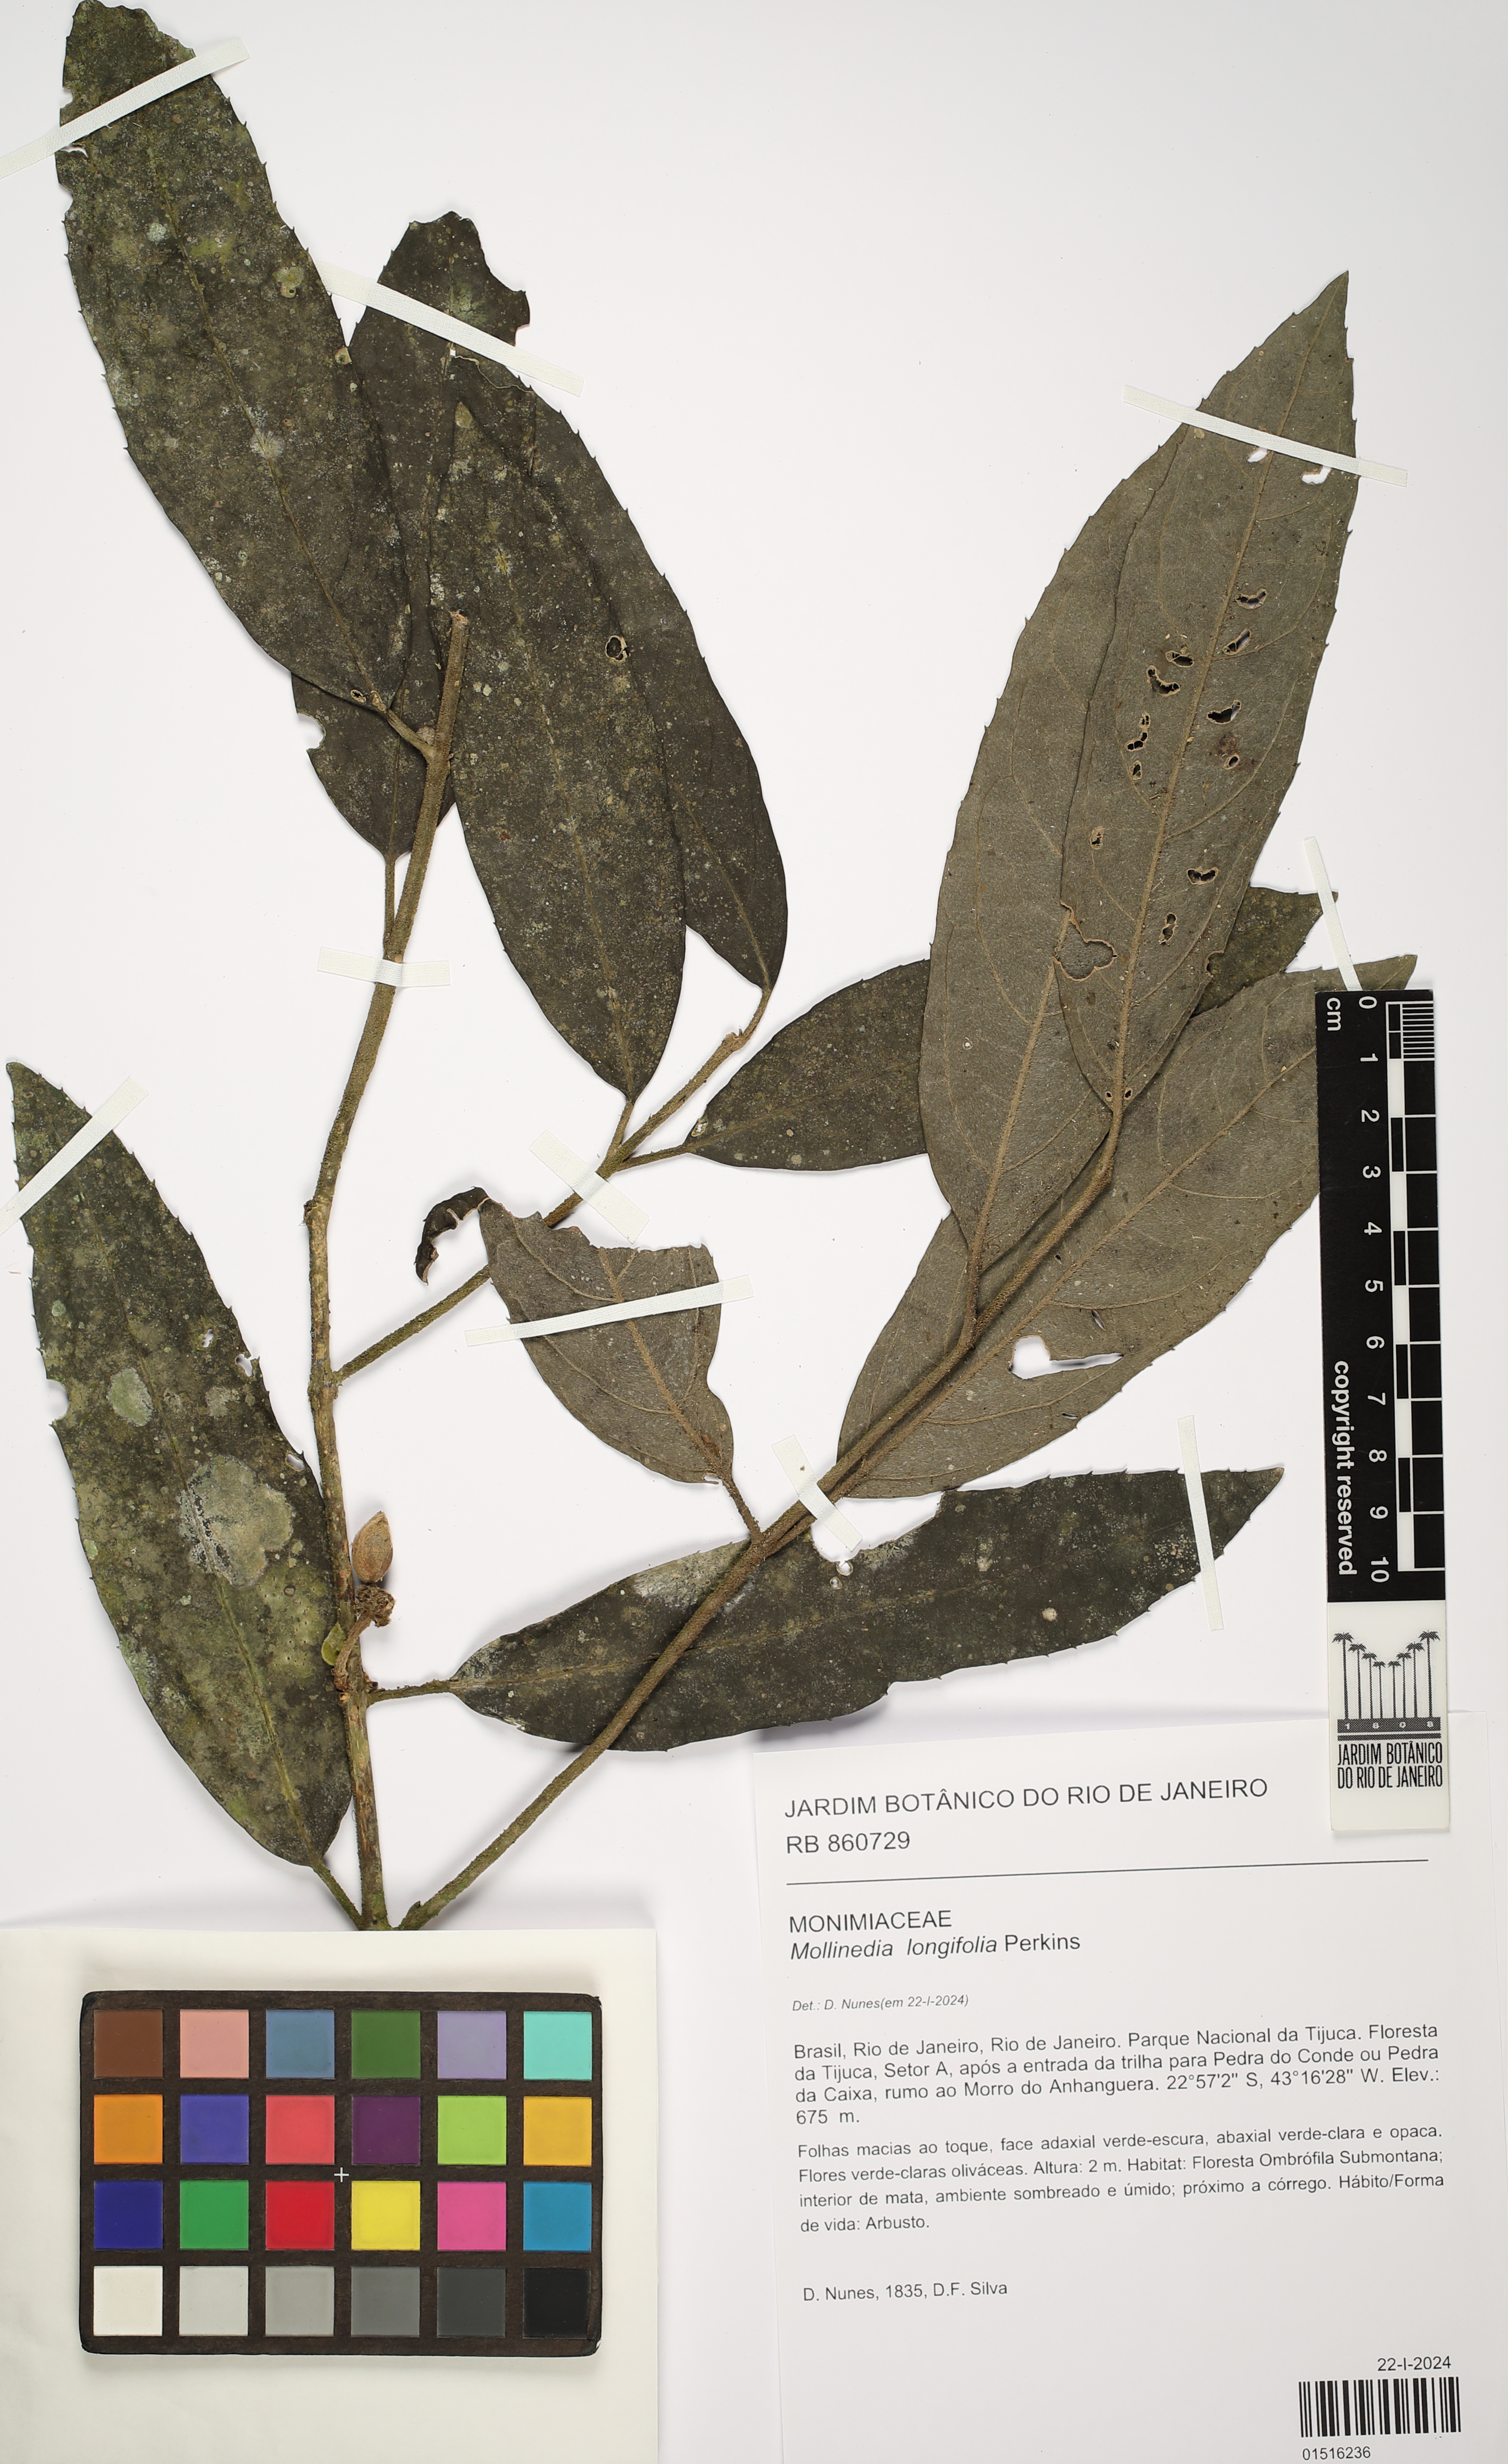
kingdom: Plantae
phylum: Tracheophyta
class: Magnoliopsida
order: Laurales
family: Monimiaceae
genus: Mollinedia
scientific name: Mollinedia longifolia
